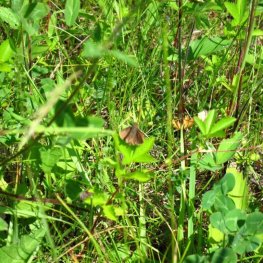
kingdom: Animalia
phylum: Arthropoda
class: Insecta
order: Lepidoptera
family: Hesperiidae
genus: Euphyes
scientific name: Euphyes vestris
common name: Dun Skipper
